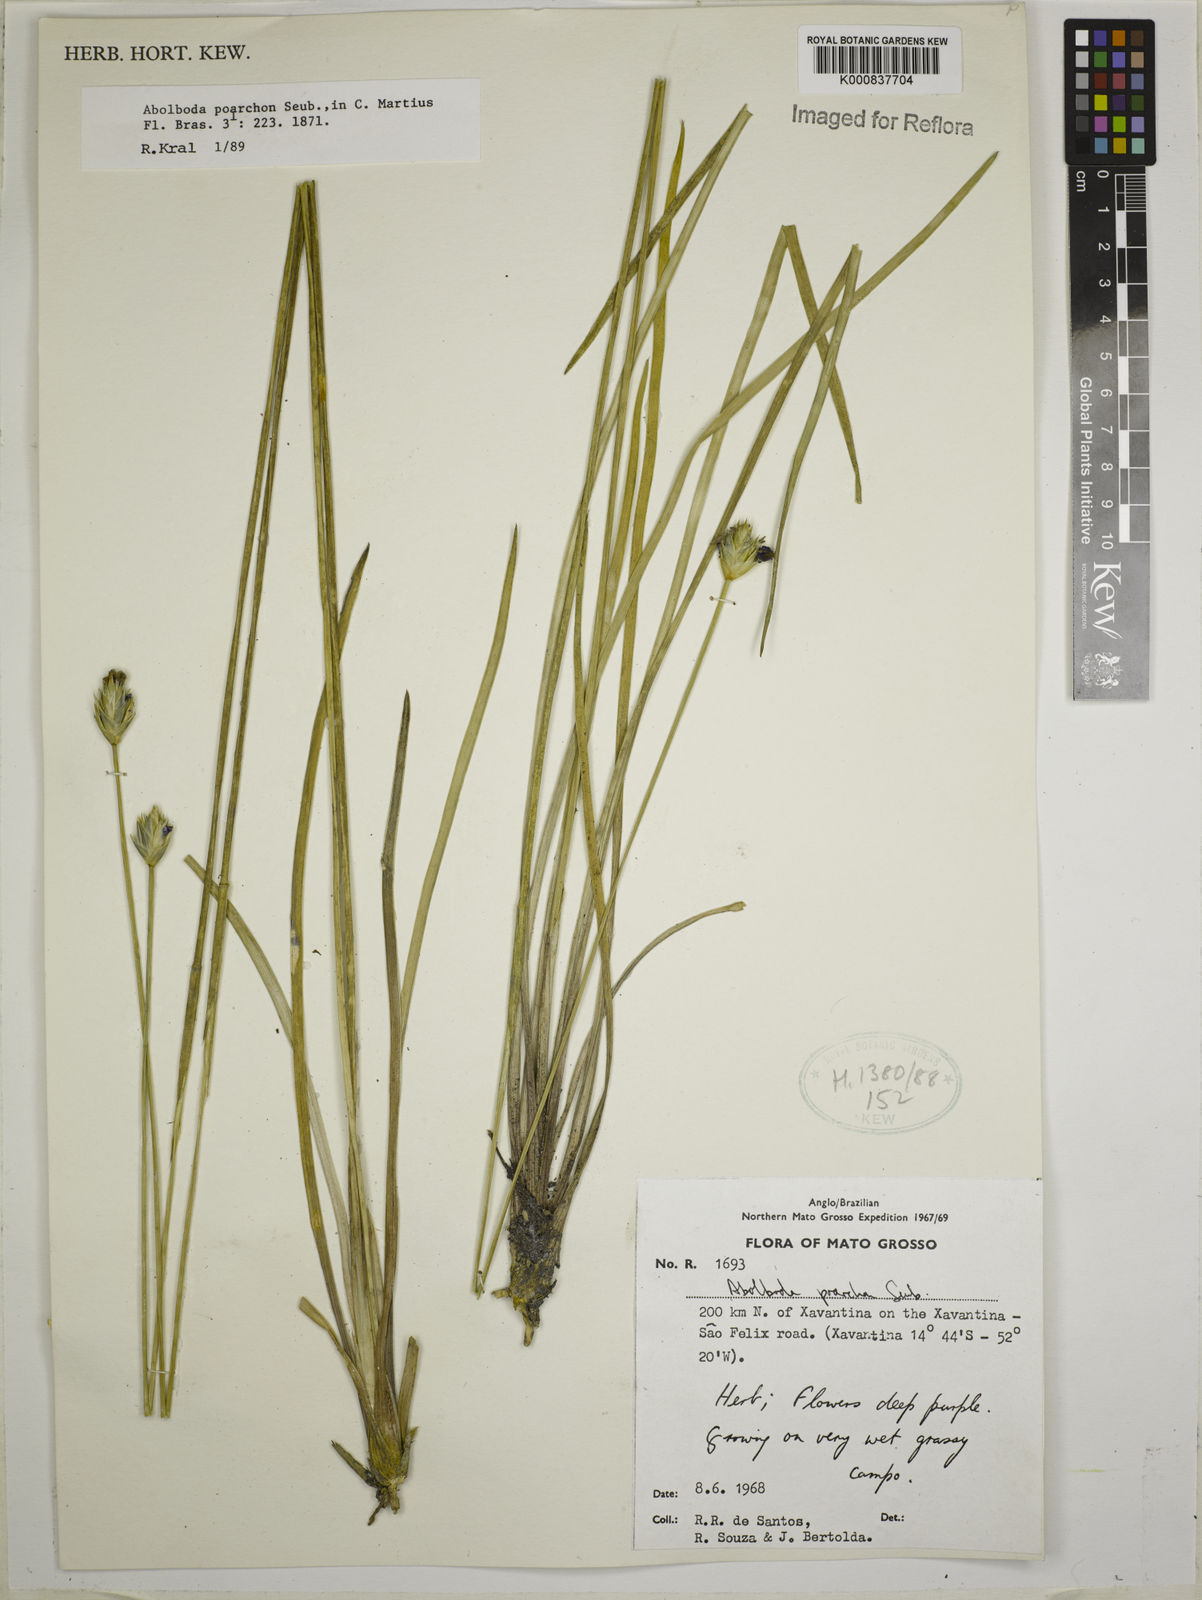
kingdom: Plantae
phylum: Tracheophyta
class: Liliopsida
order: Poales
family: Xyridaceae
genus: Abolboda
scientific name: Abolboda poarchon
